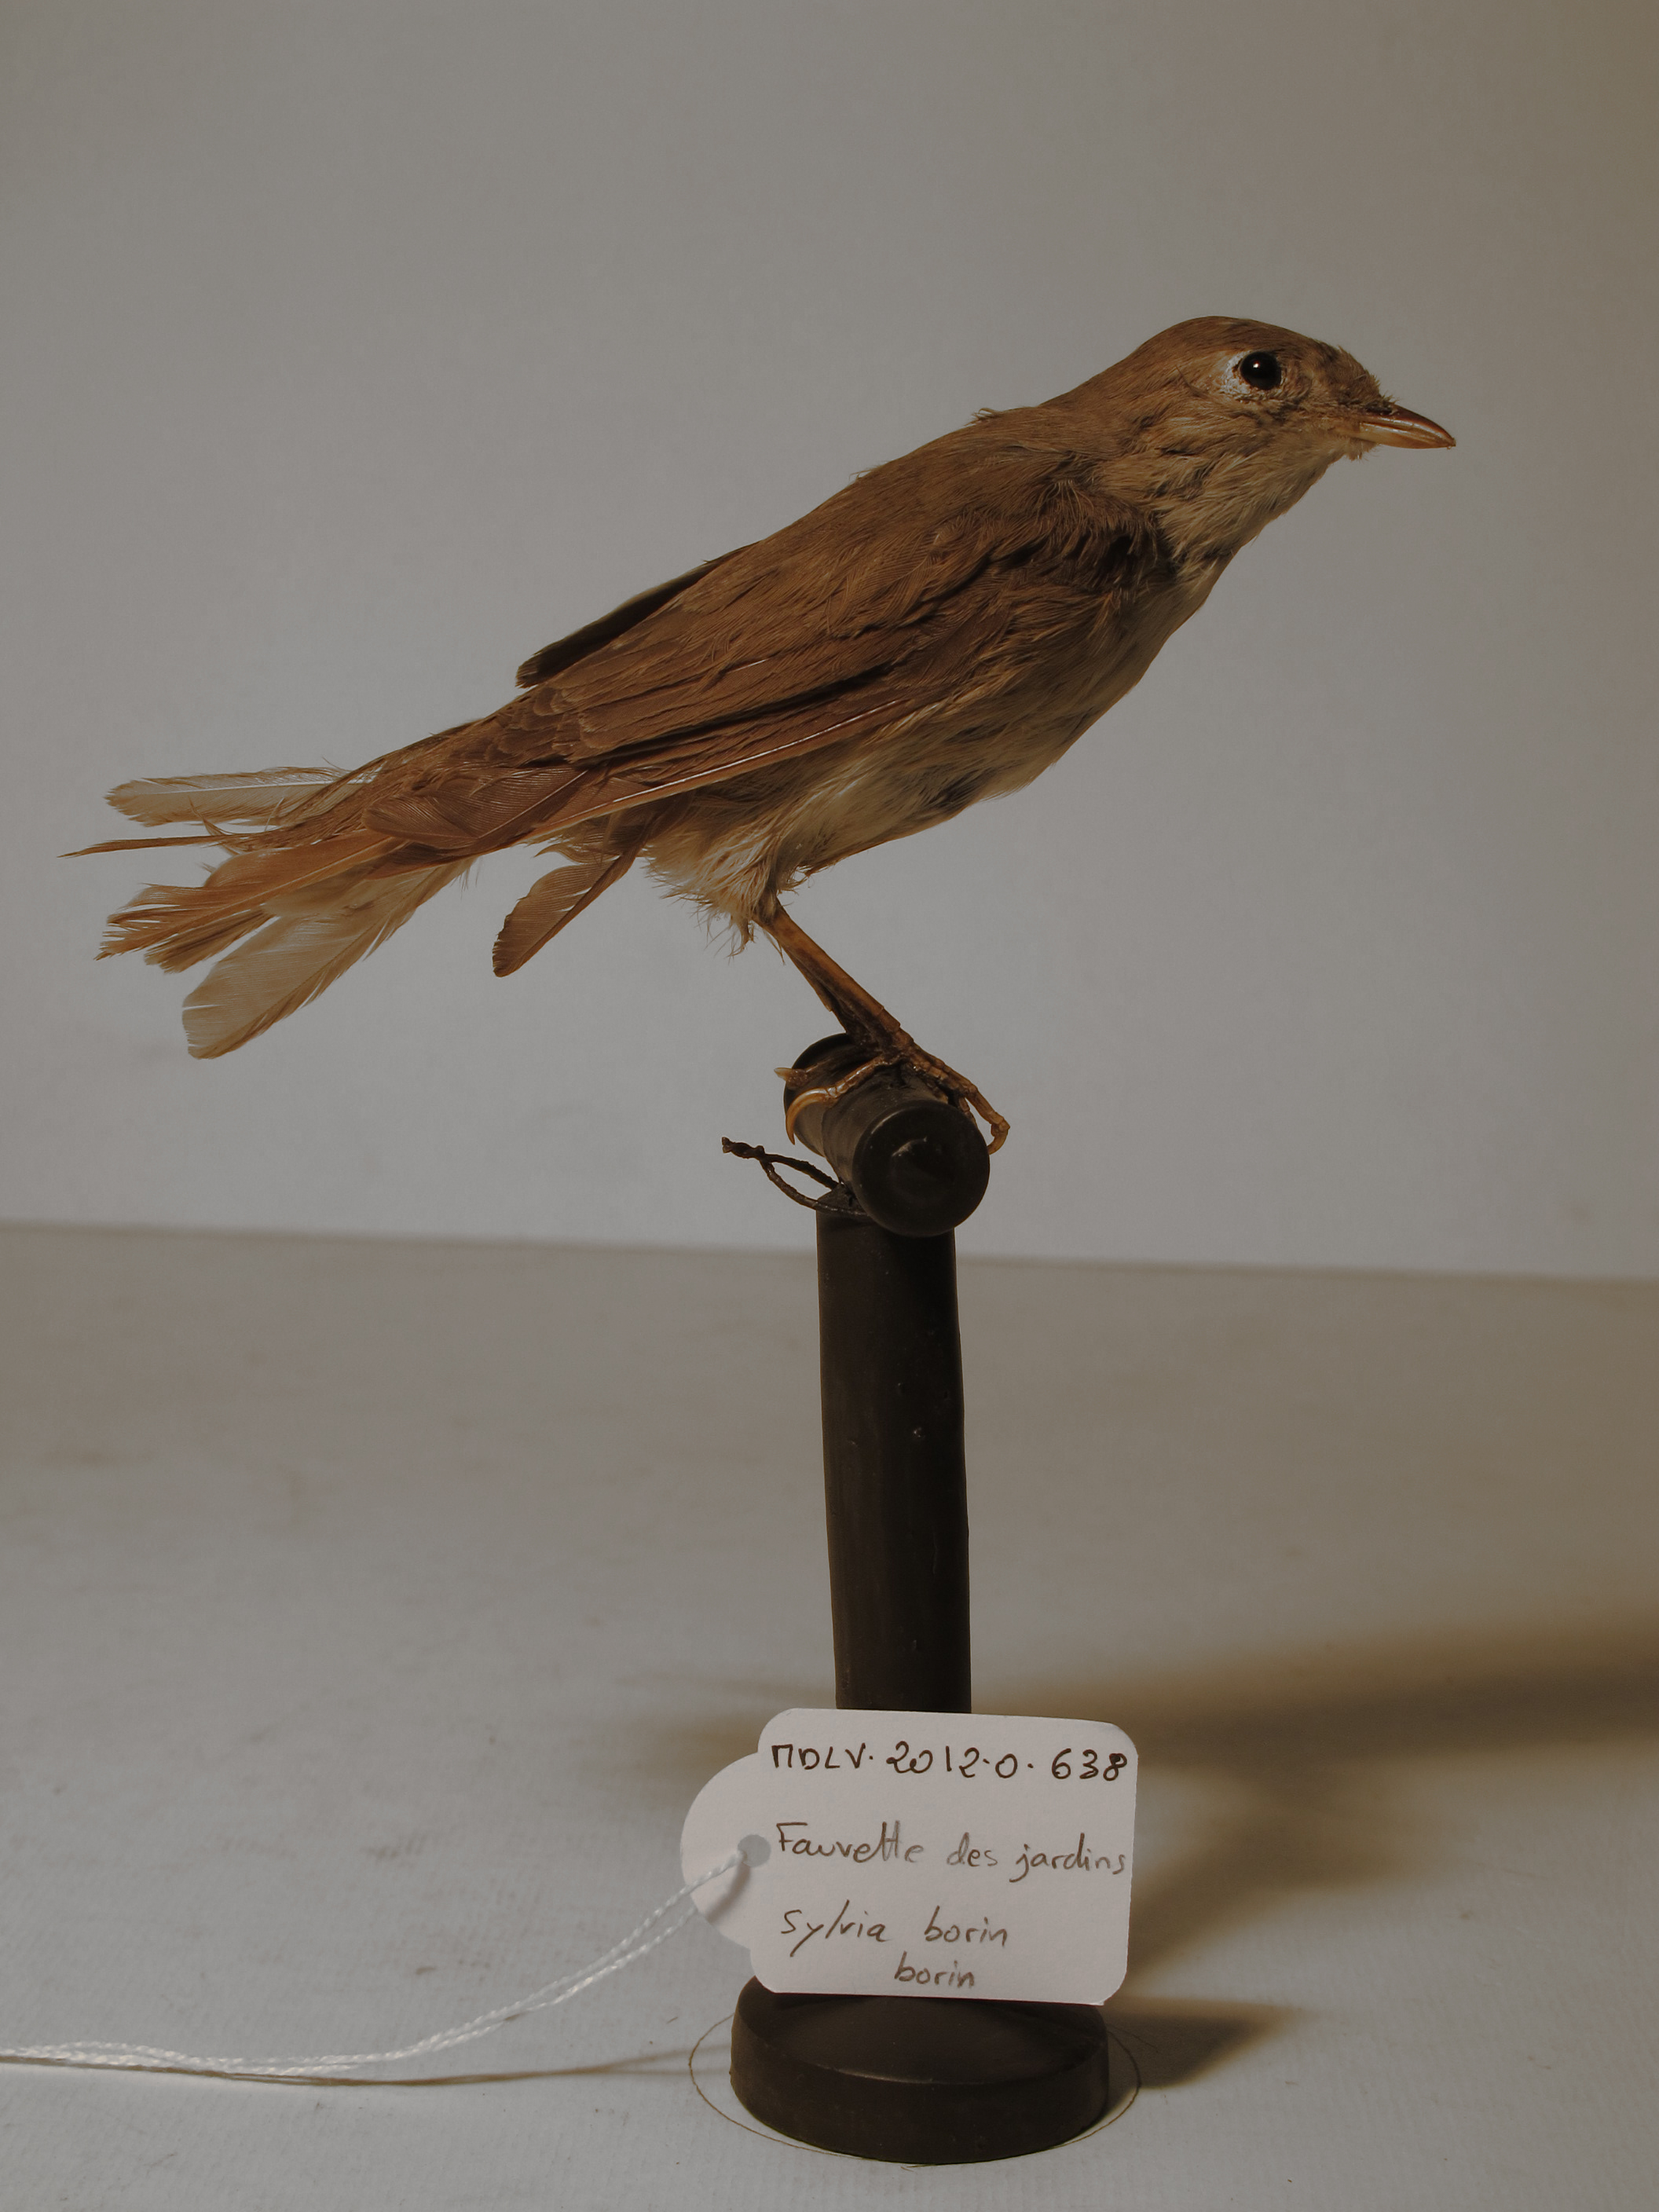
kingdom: Animalia
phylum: Chordata
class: Aves
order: Passeriformes
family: Sylviidae
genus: Sylvia
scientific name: Sylvia borin
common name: Garden Warbler
